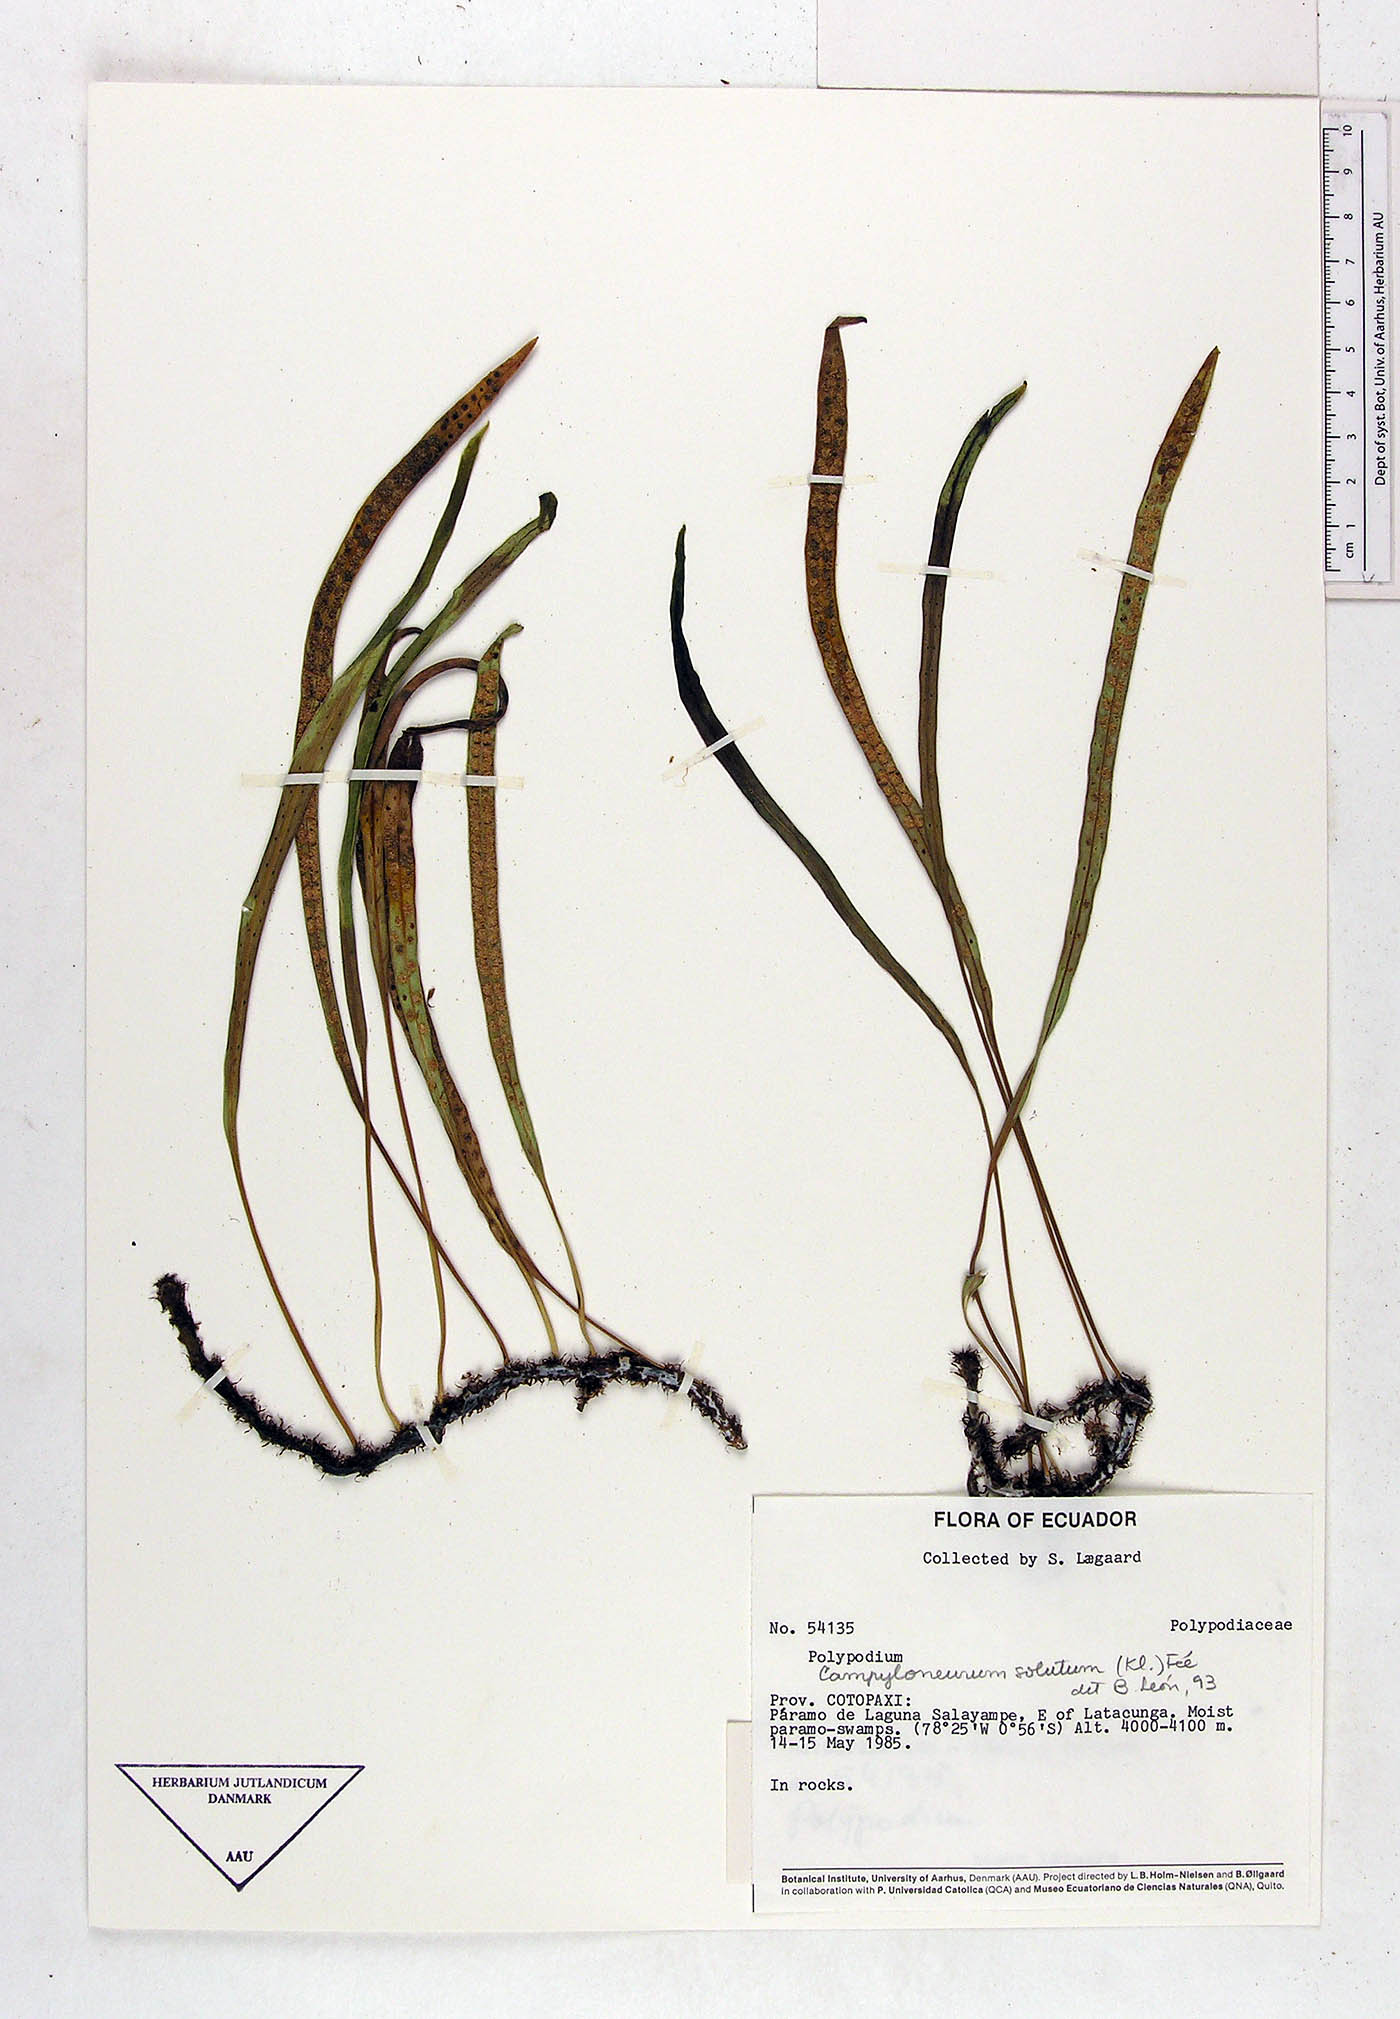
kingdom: Plantae
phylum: Tracheophyta
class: Polypodiopsida
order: Polypodiales
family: Polypodiaceae
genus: Campyloneurum
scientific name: Campyloneurum solutum
